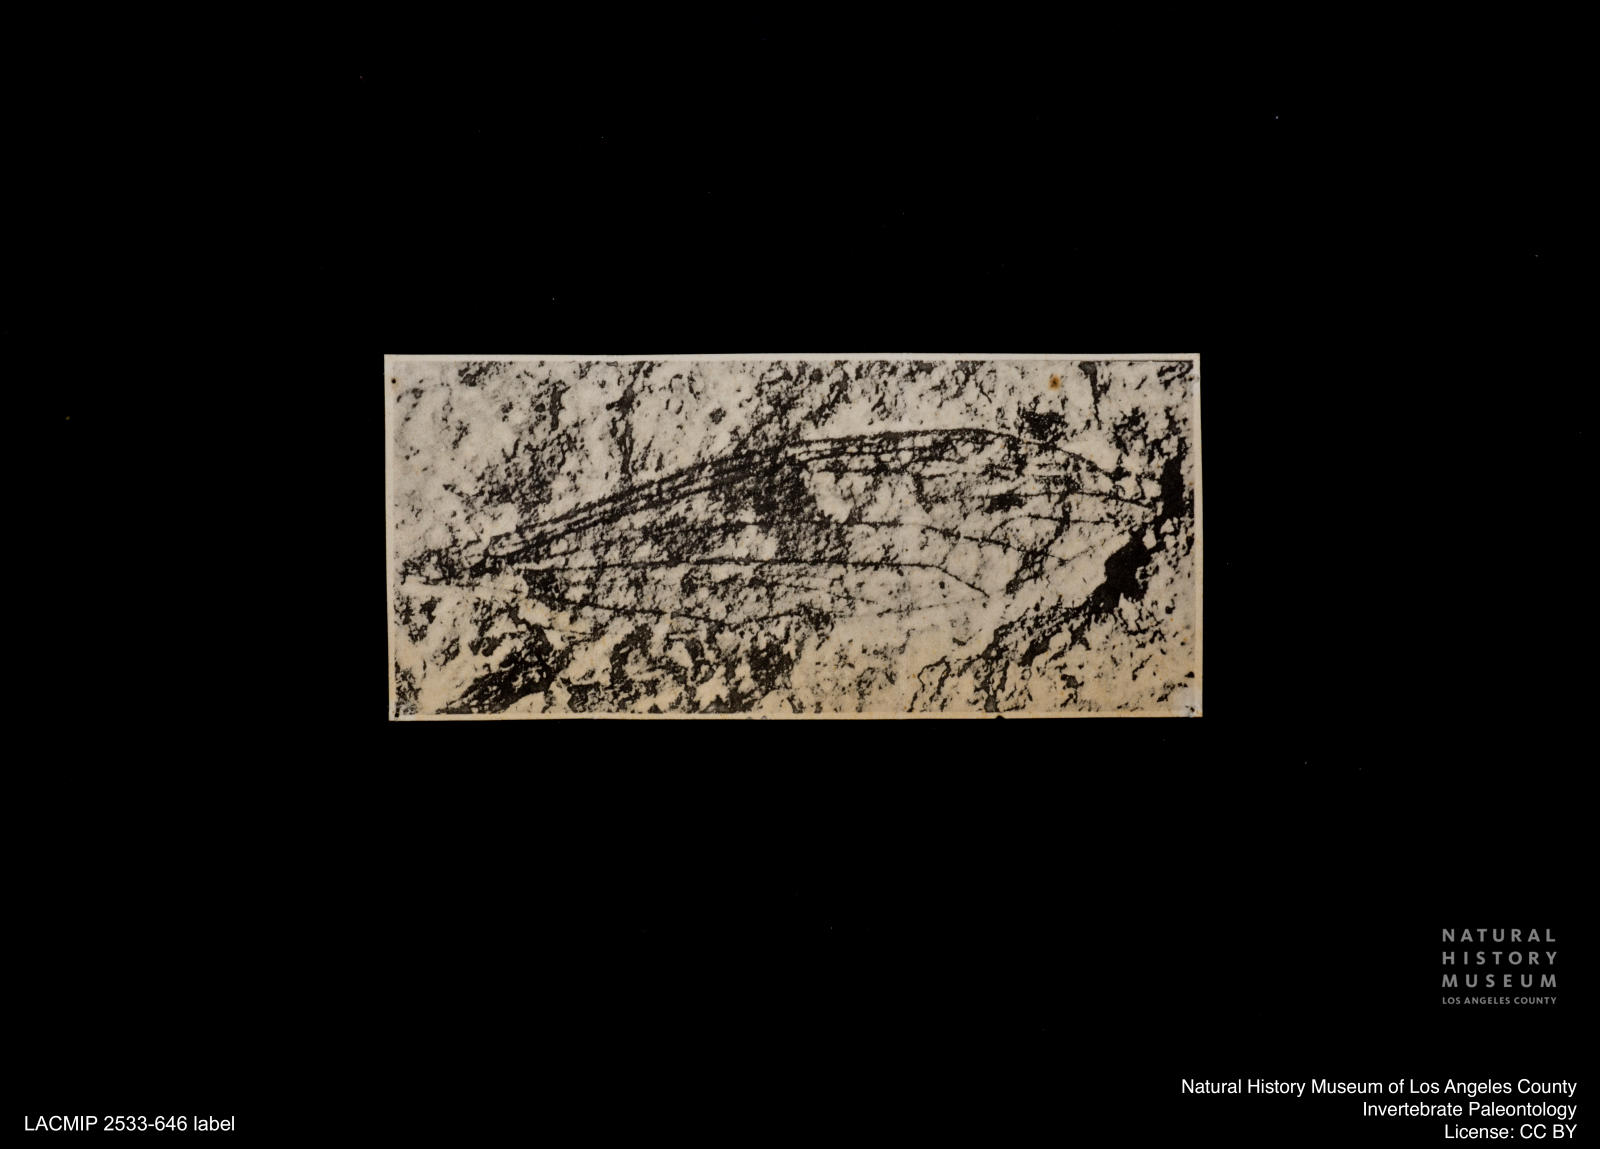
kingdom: Animalia
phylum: Arthropoda
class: Insecta
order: Diptera
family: Limoniidae
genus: Limnophila
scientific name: Limnophila
